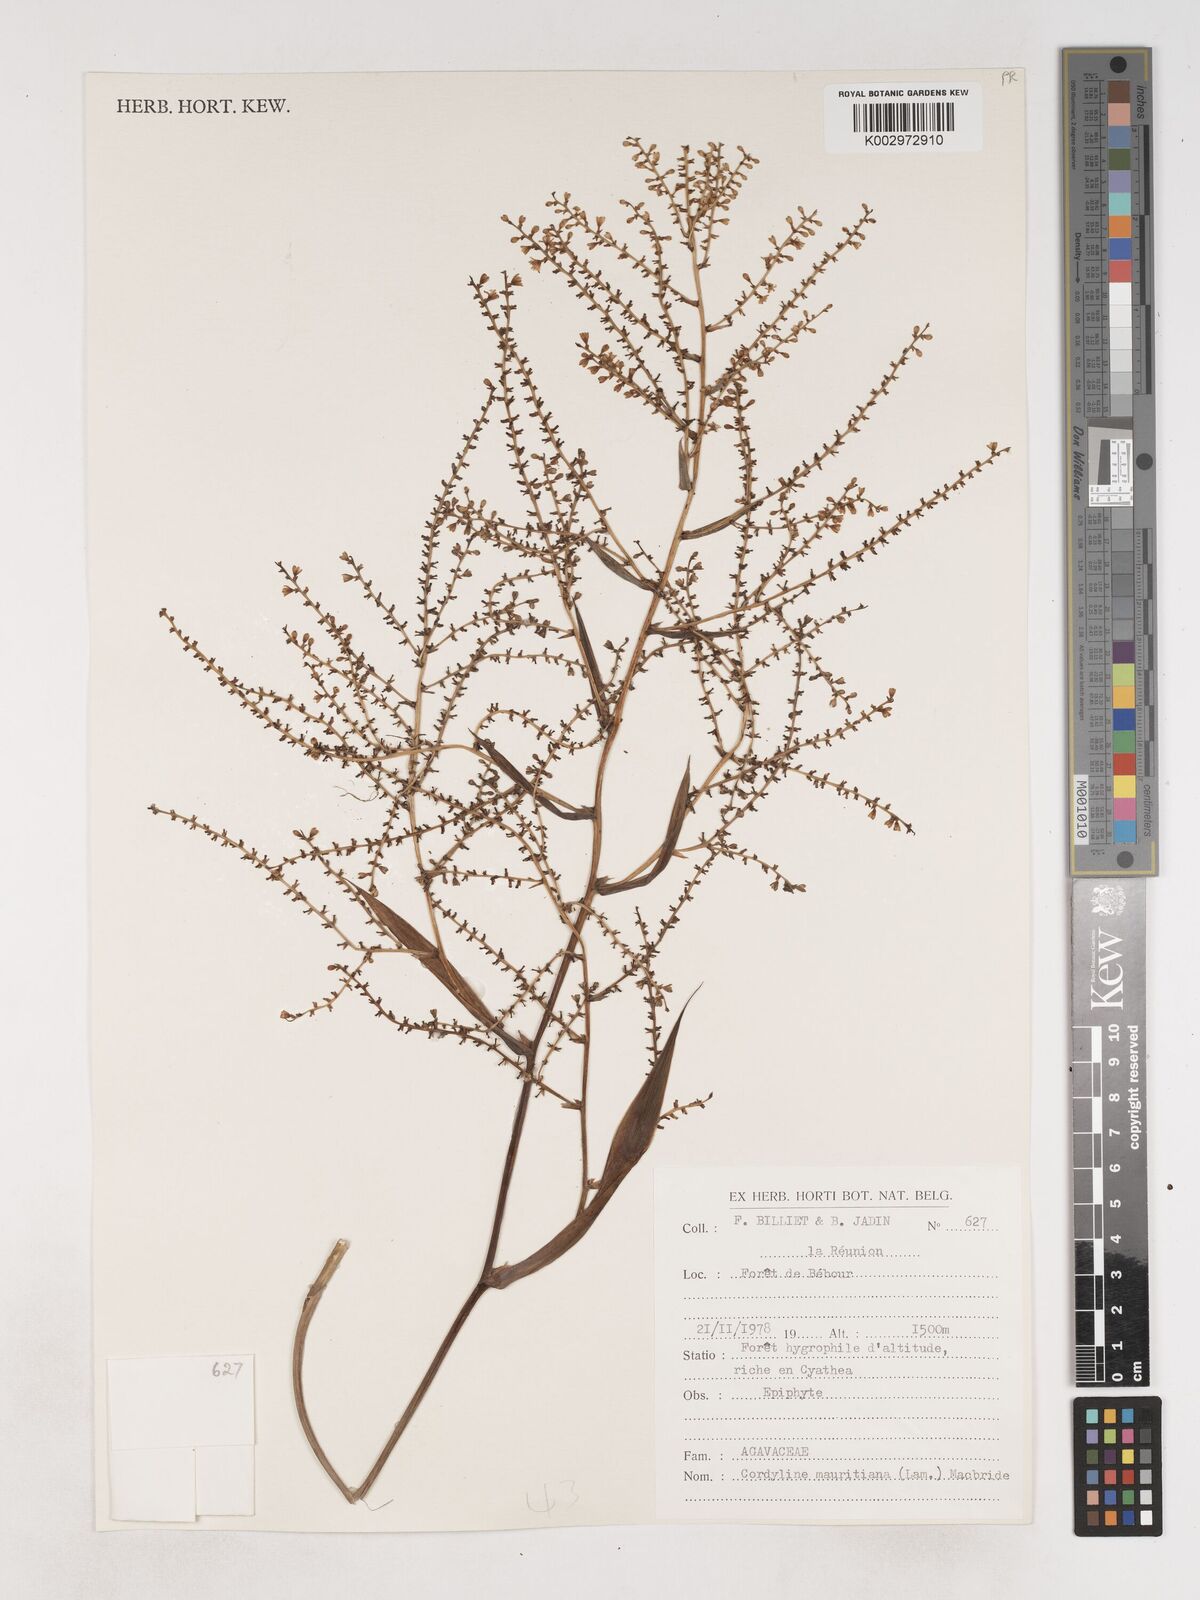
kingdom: Plantae
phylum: Tracheophyta
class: Liliopsida
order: Asparagales
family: Asparagaceae
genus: Cordyline
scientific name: Cordyline mauritiana
